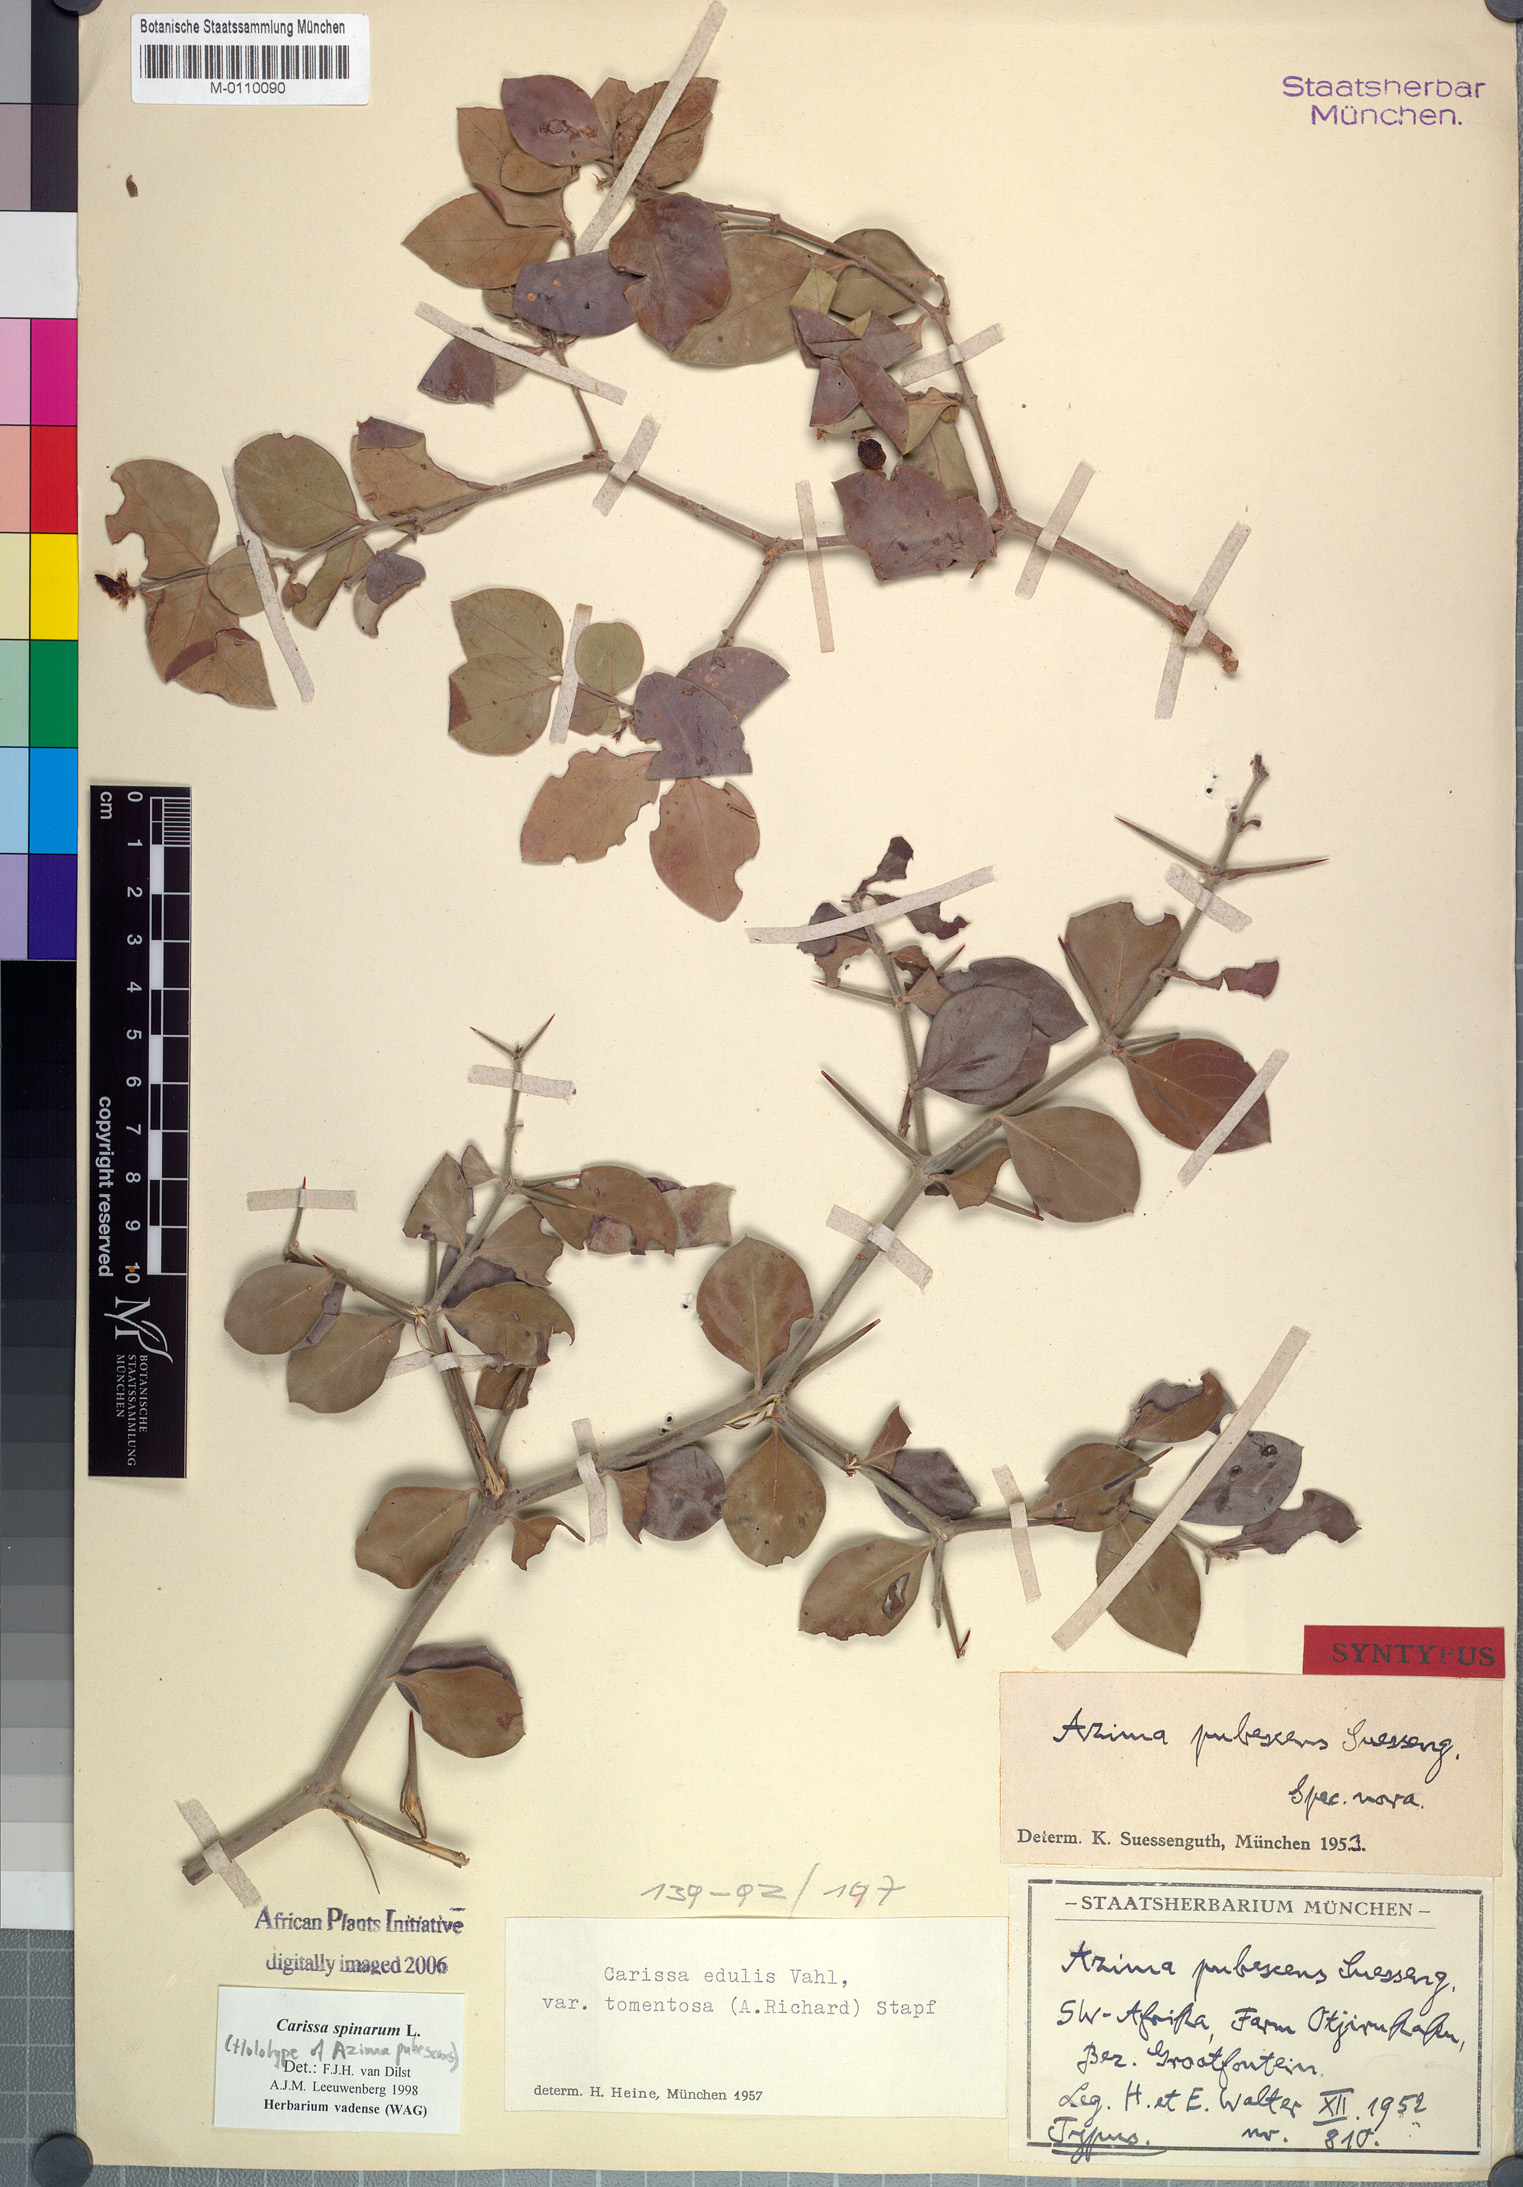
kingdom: Plantae
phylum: Tracheophyta
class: Magnoliopsida
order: Gentianales
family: Apocynaceae
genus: Carissa
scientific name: Carissa spinarum
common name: Egyptian carissa
